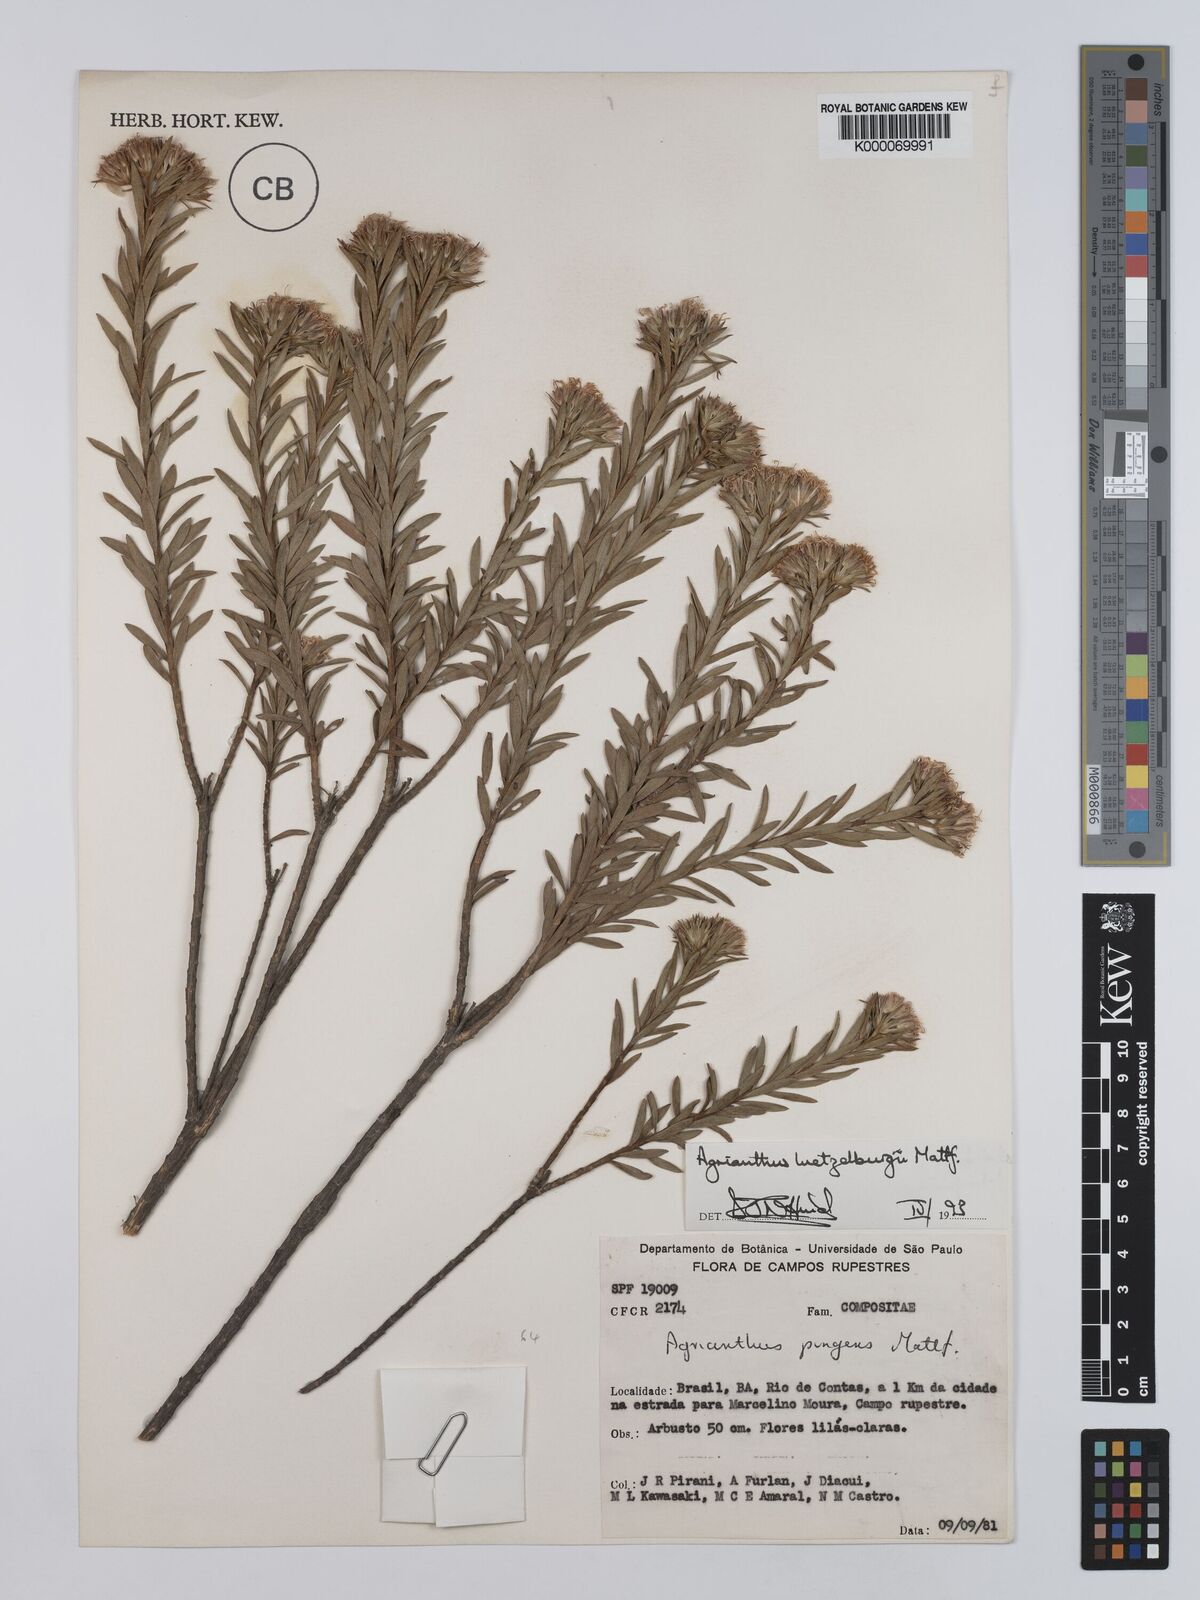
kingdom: Plantae
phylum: Tracheophyta
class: Magnoliopsida
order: Asterales
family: Asteraceae
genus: Agrianthus
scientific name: Agrianthus
